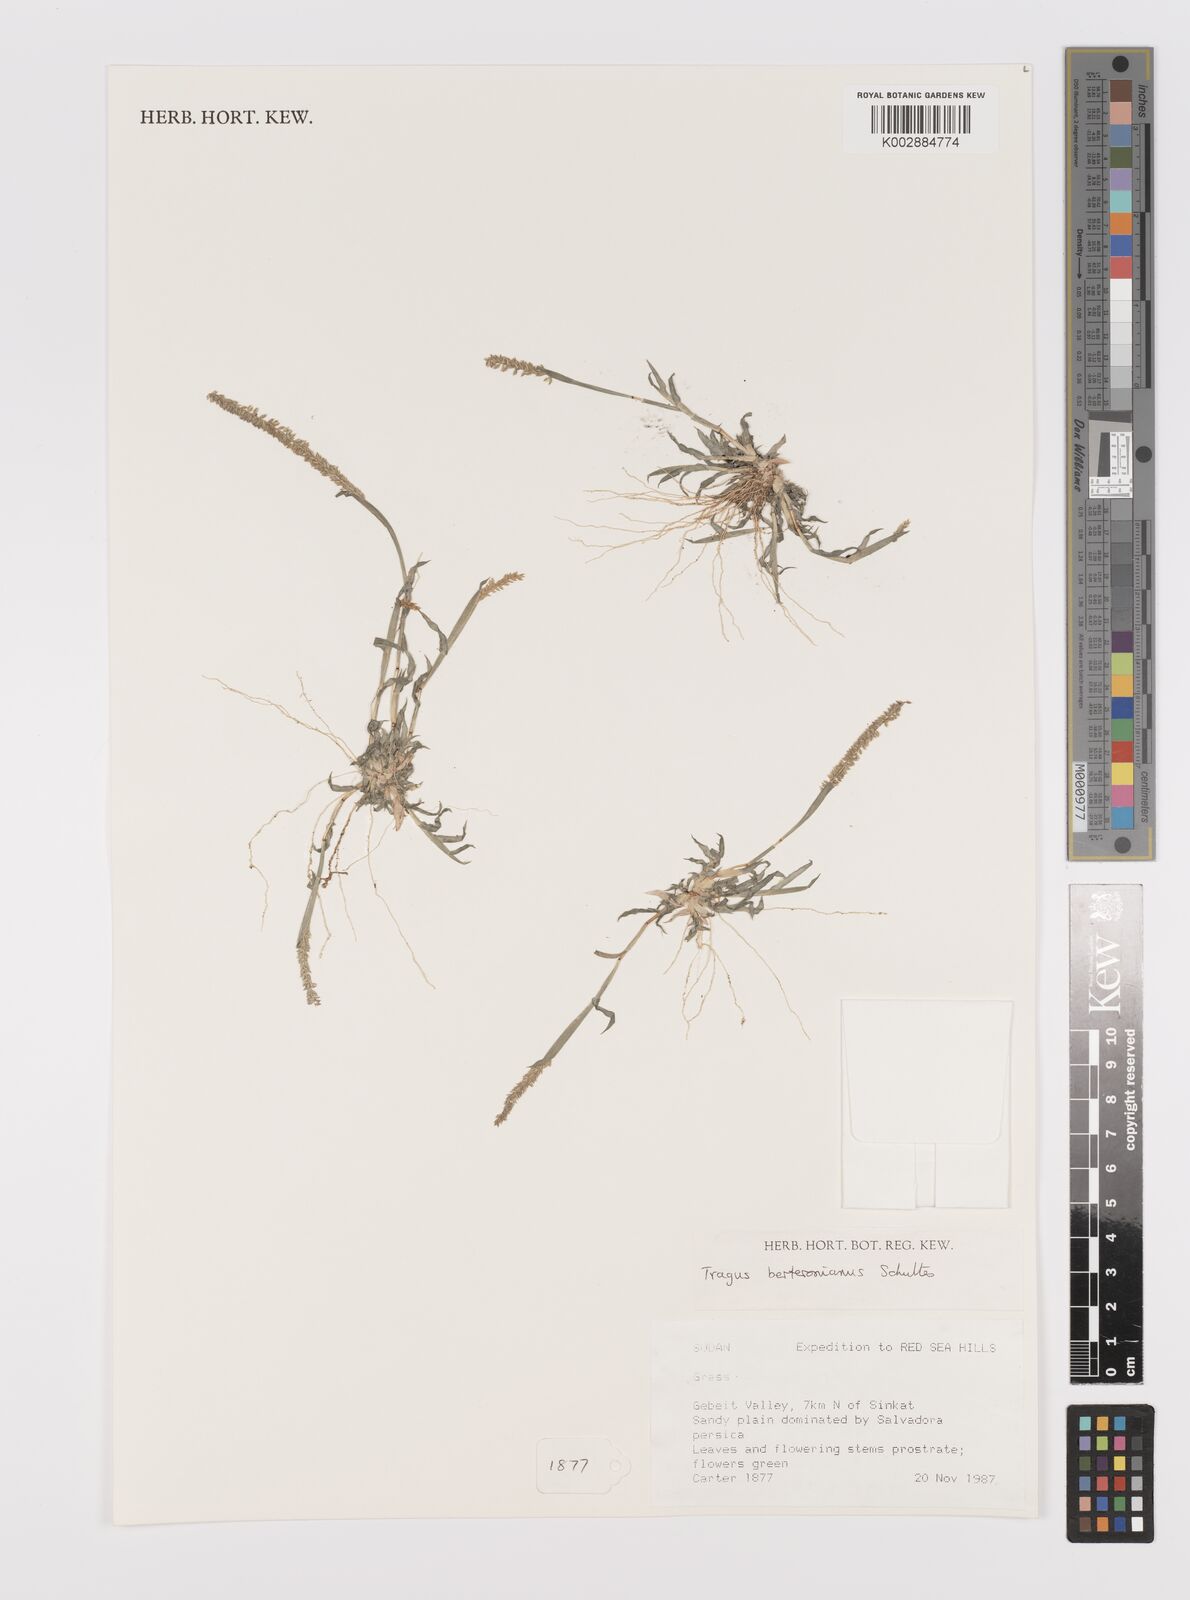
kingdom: Plantae
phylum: Tracheophyta
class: Liliopsida
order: Poales
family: Poaceae
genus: Tragus
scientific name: Tragus berteronianus
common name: African bur-grass
